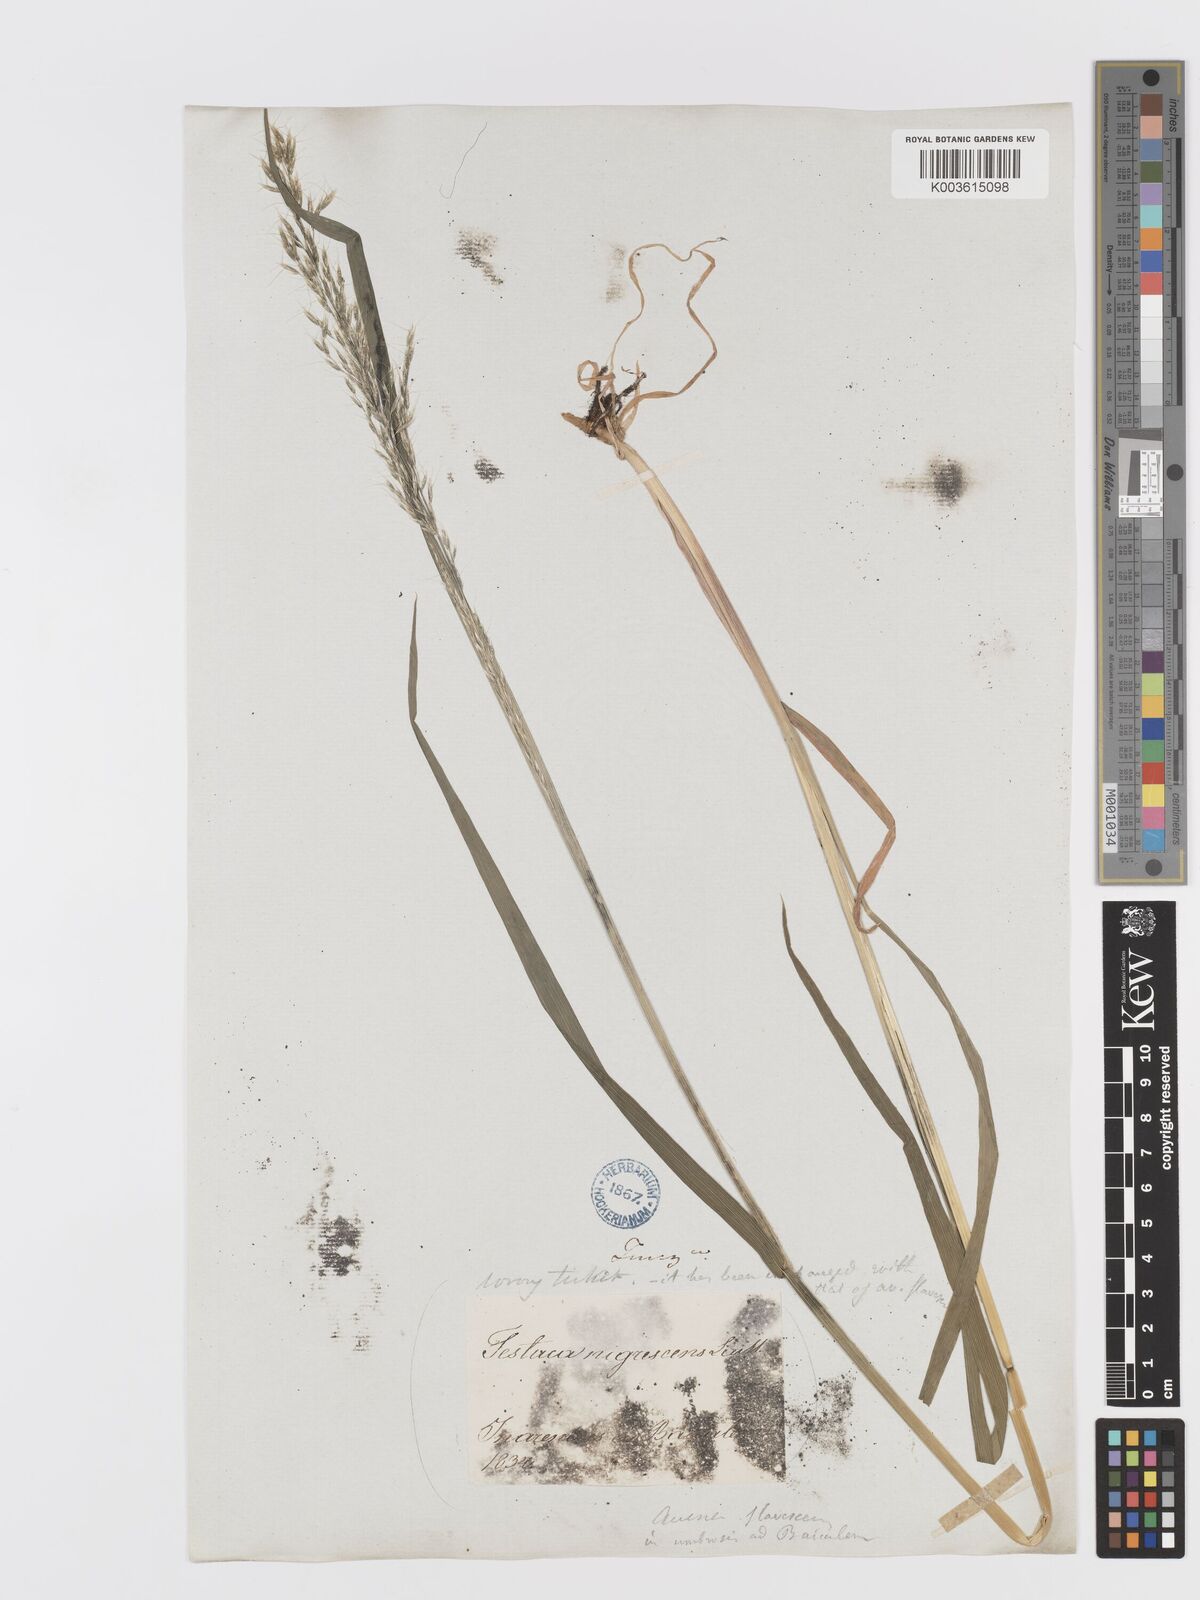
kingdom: Plantae
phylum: Tracheophyta
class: Liliopsida
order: Poales
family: Poaceae
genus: Trisetum
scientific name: Trisetum flavescens
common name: Yellow oat-grass
